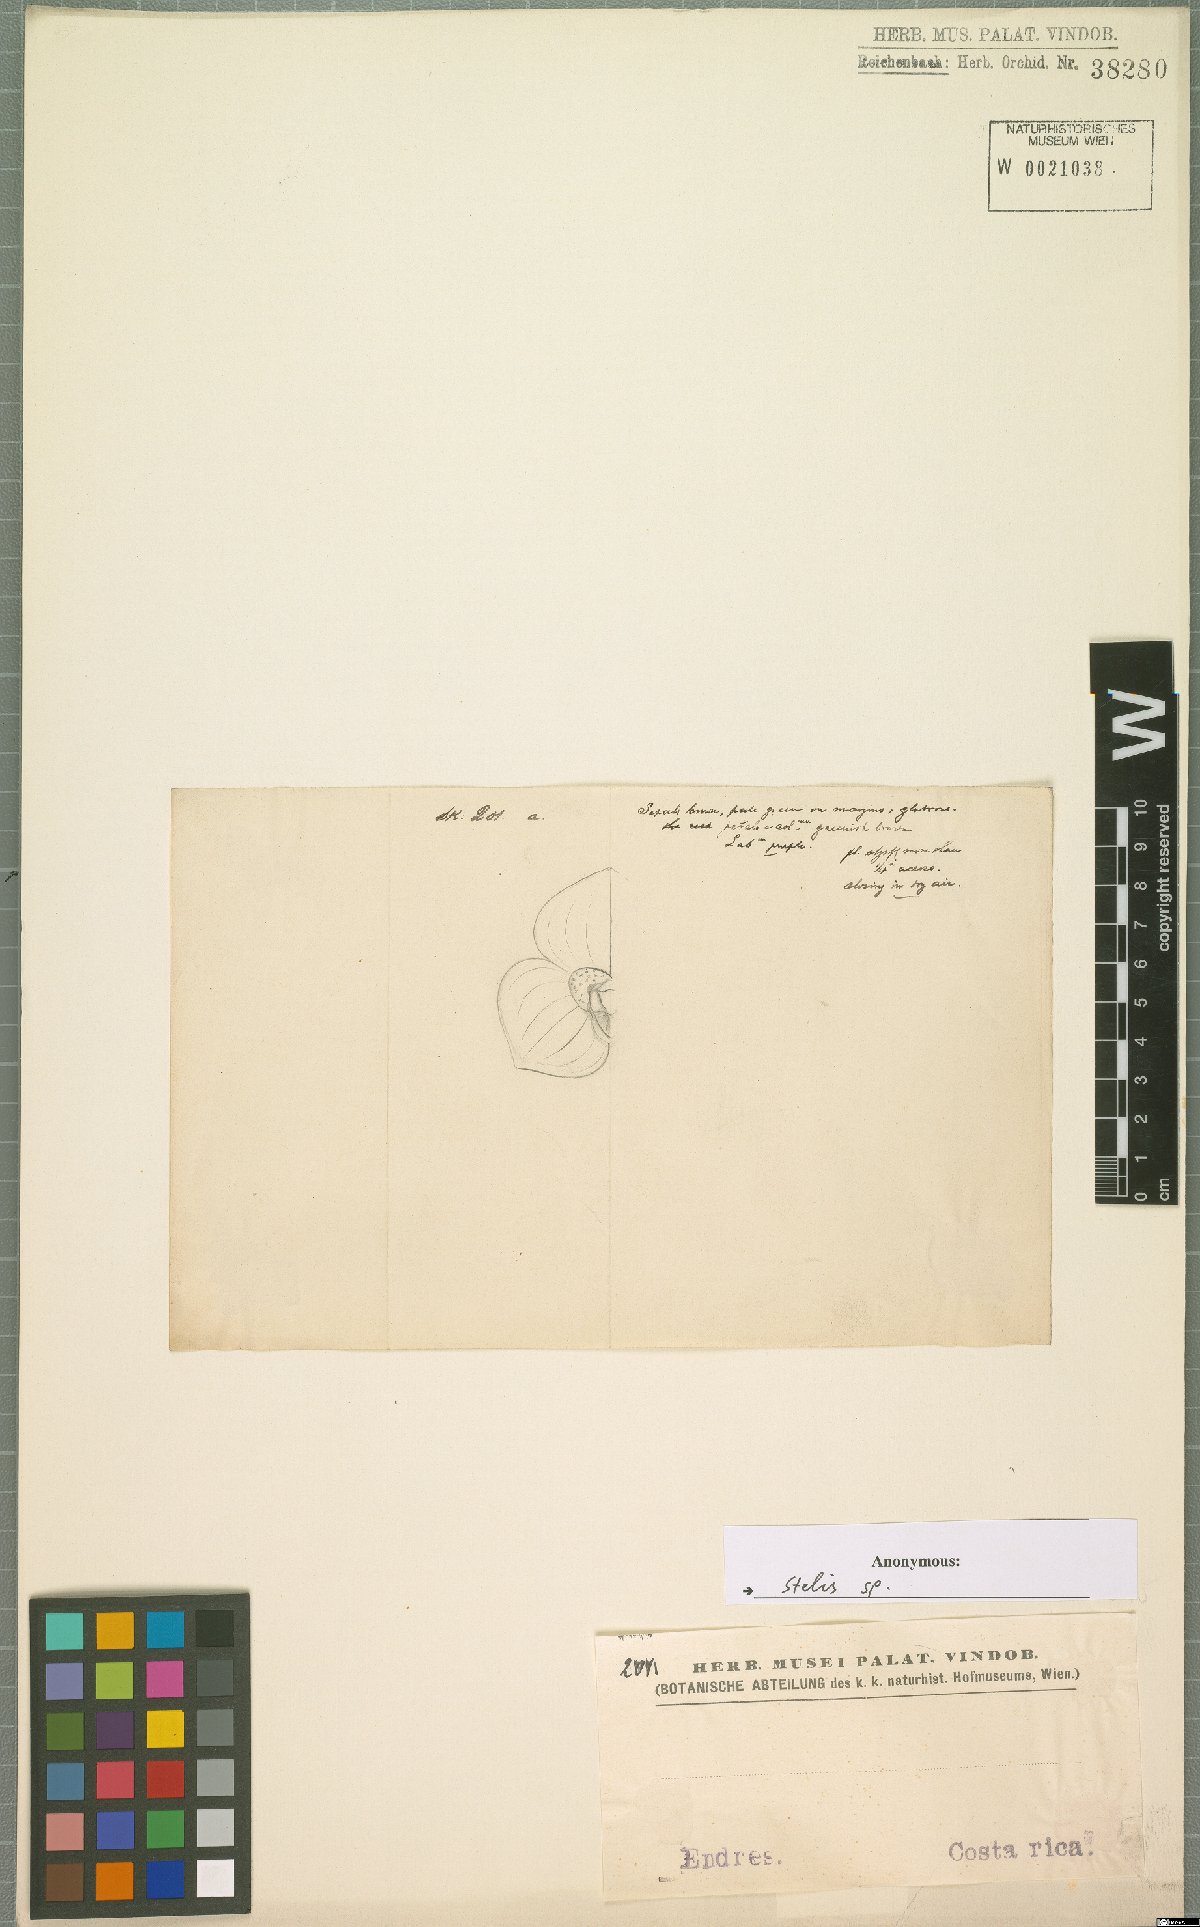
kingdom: Plantae
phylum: Tracheophyta
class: Liliopsida
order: Asparagales
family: Orchidaceae
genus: Stelis
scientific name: Stelis
